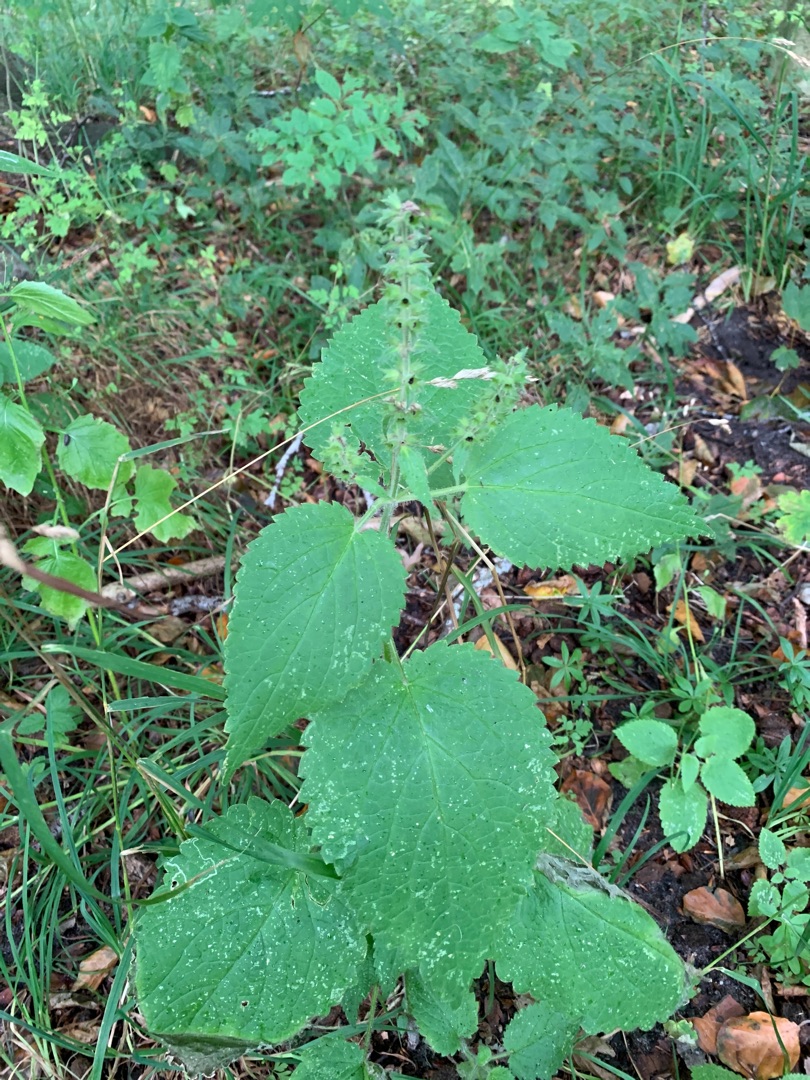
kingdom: Plantae
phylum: Tracheophyta
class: Magnoliopsida
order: Lamiales
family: Lamiaceae
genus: Stachys
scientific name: Stachys sylvatica
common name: Skov-galtetand
